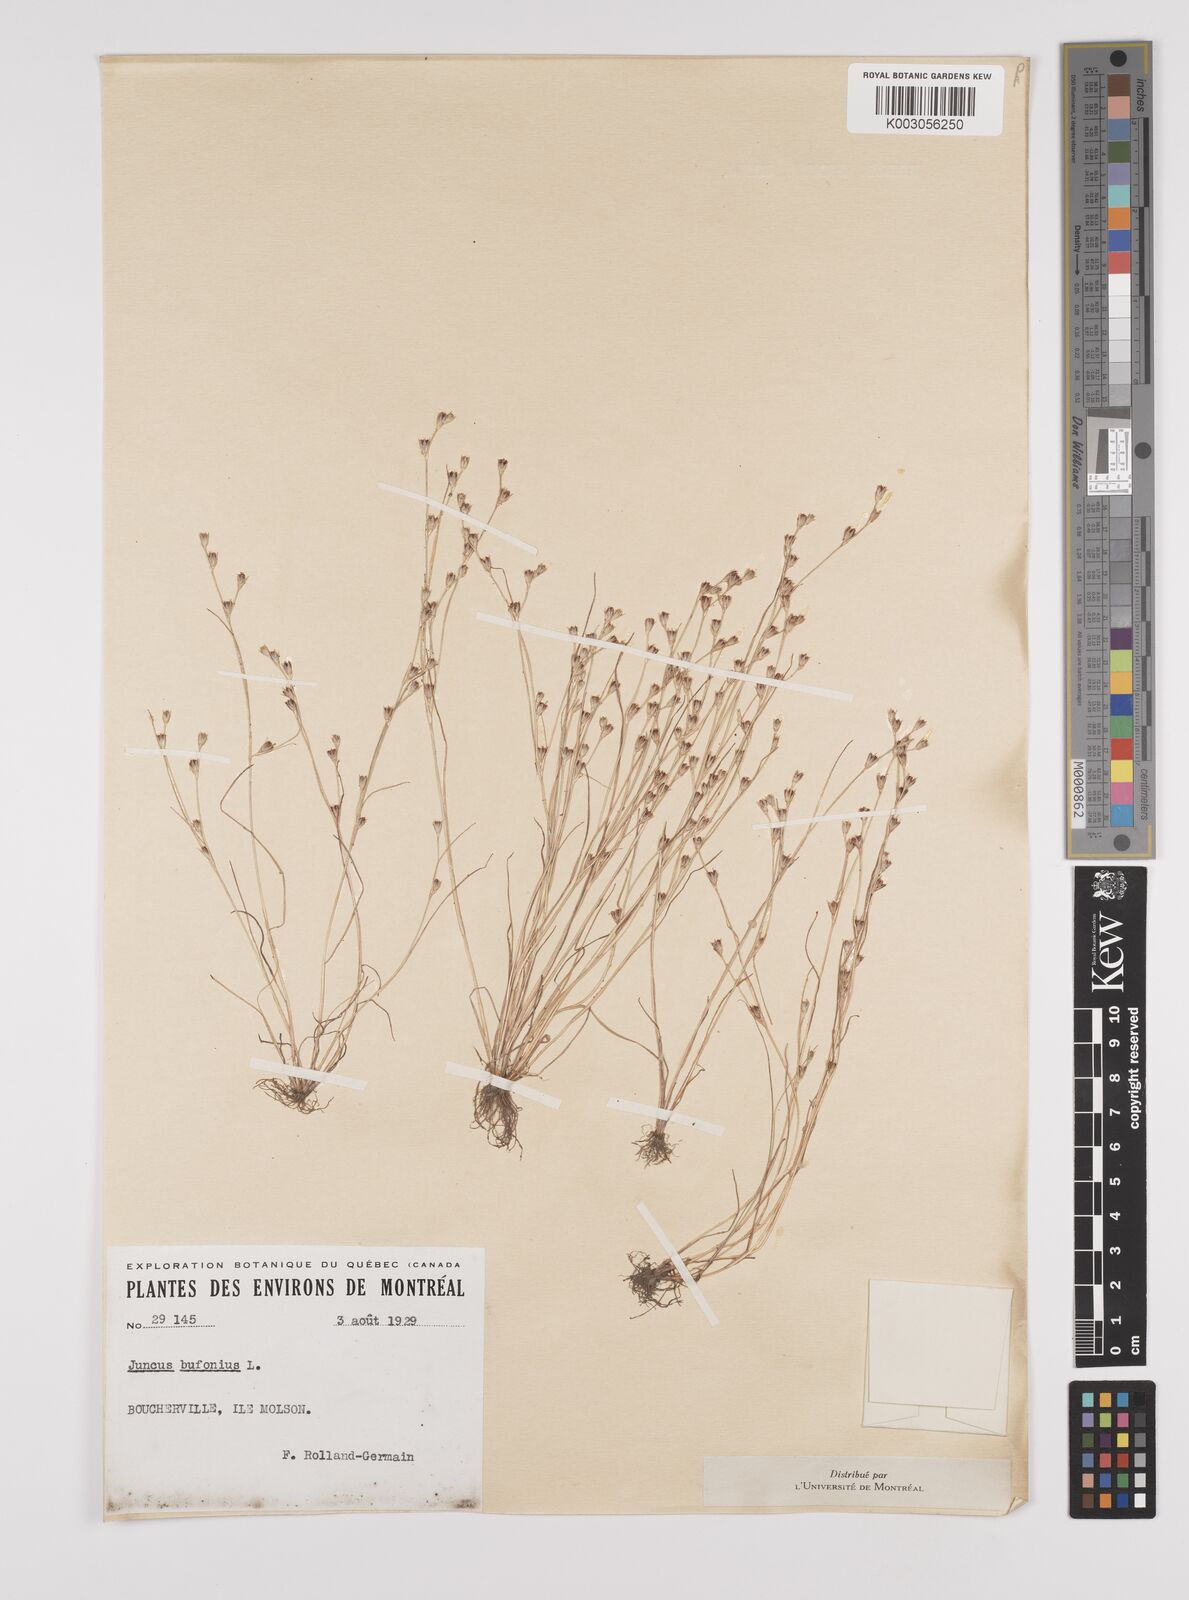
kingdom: Plantae
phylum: Tracheophyta
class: Liliopsida
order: Poales
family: Juncaceae
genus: Juncus
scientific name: Juncus bufonius
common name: Toad rush
